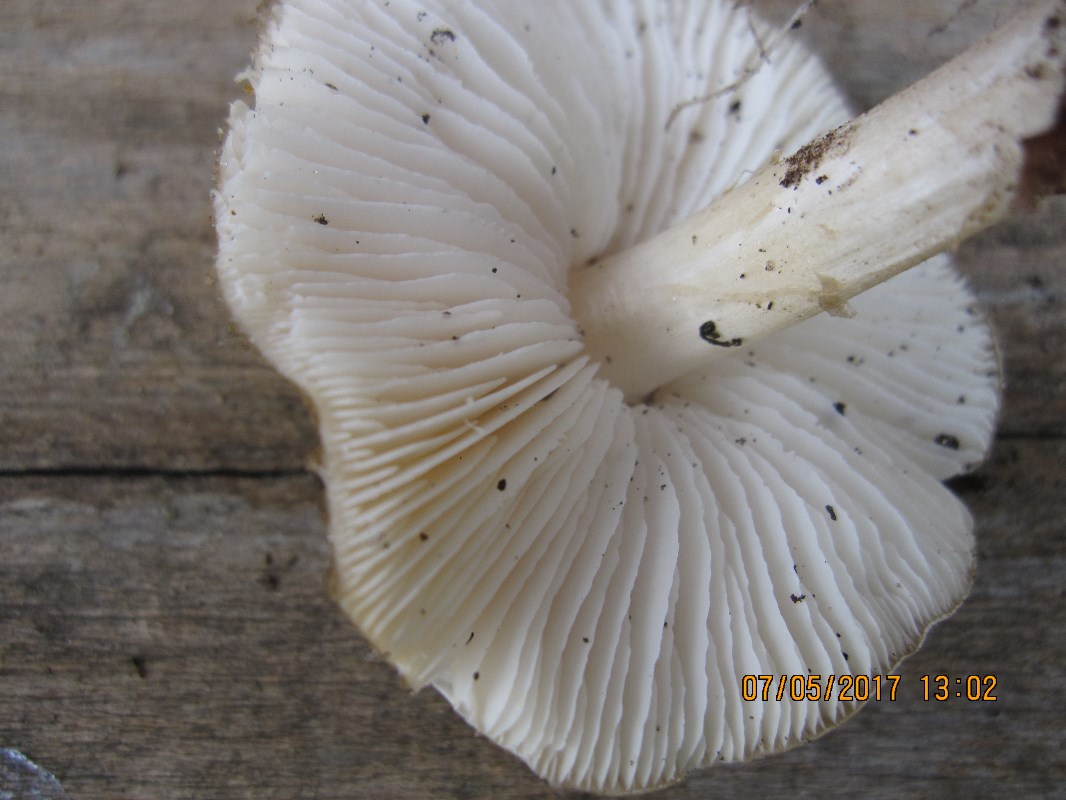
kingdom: Fungi
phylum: Basidiomycota
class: Agaricomycetes
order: Agaricales
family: Porotheleaceae
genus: Hydropodia
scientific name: Hydropodia subalpina
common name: vår-fnugfod
